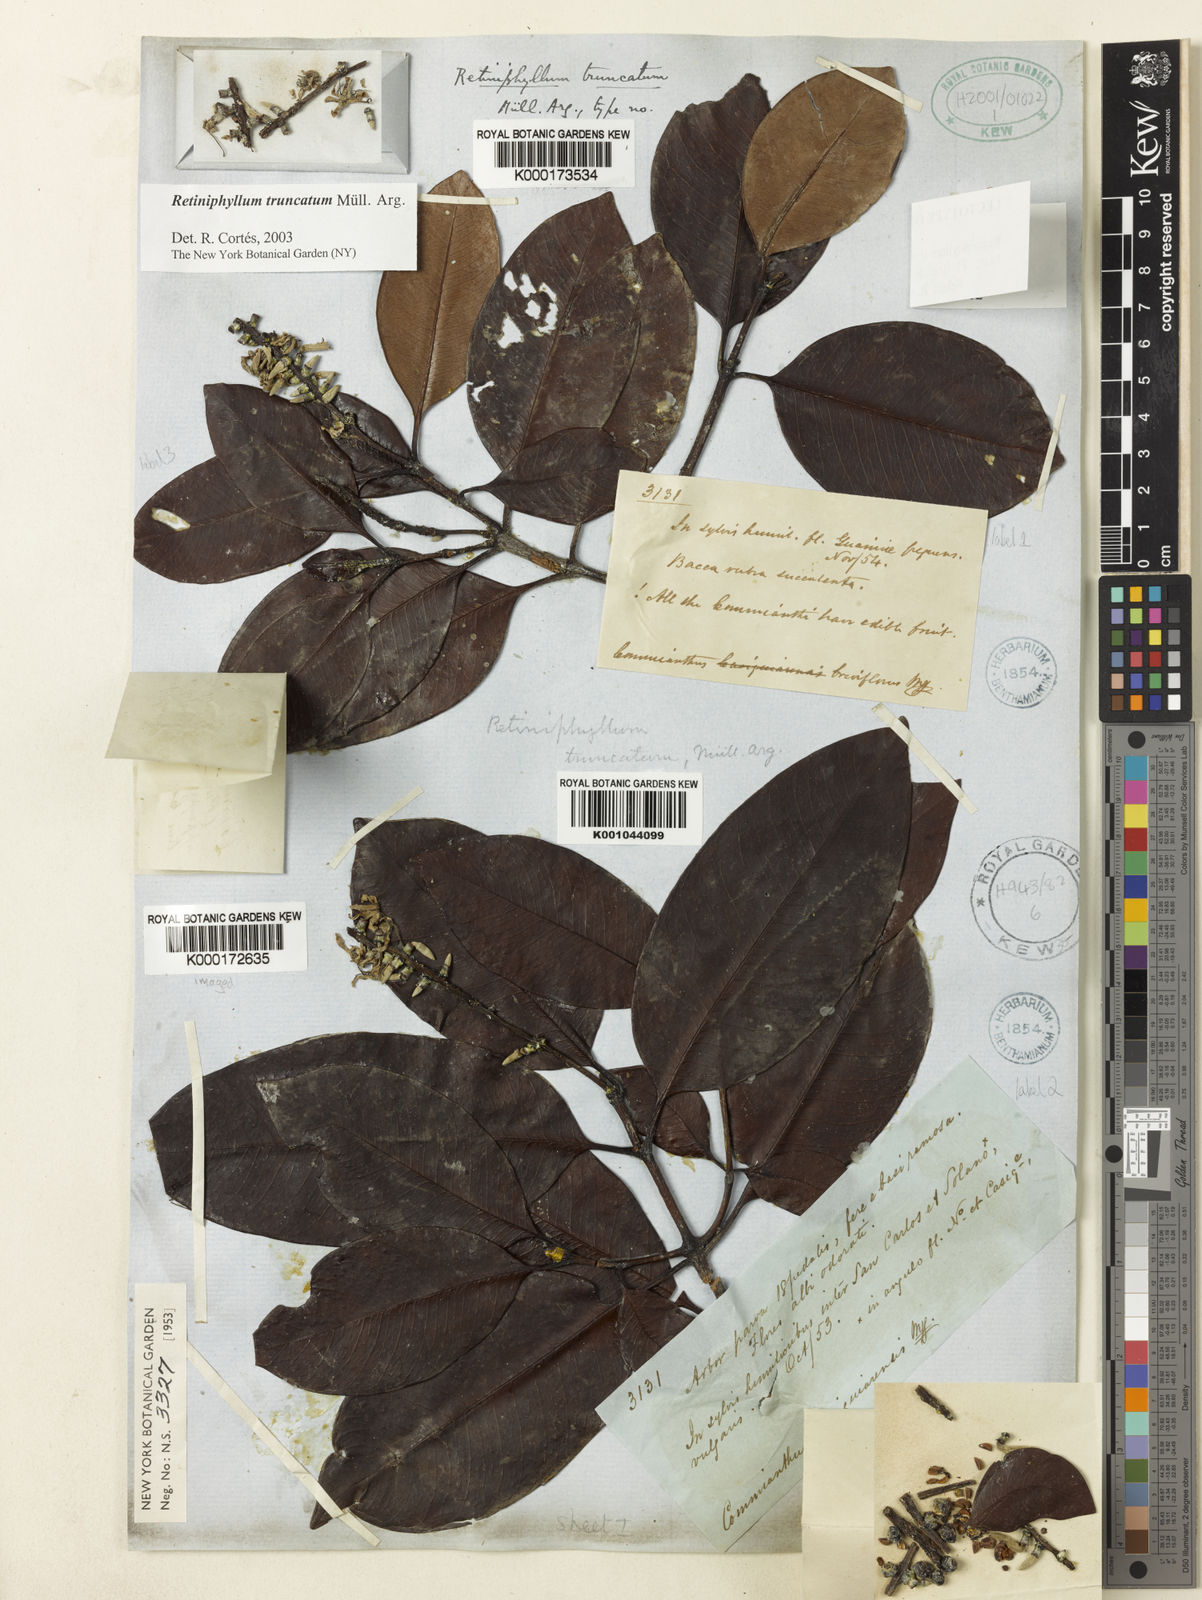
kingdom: Plantae
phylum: Tracheophyta
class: Magnoliopsida
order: Gentianales
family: Rubiaceae
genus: Retiniphyllum
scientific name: Retiniphyllum
